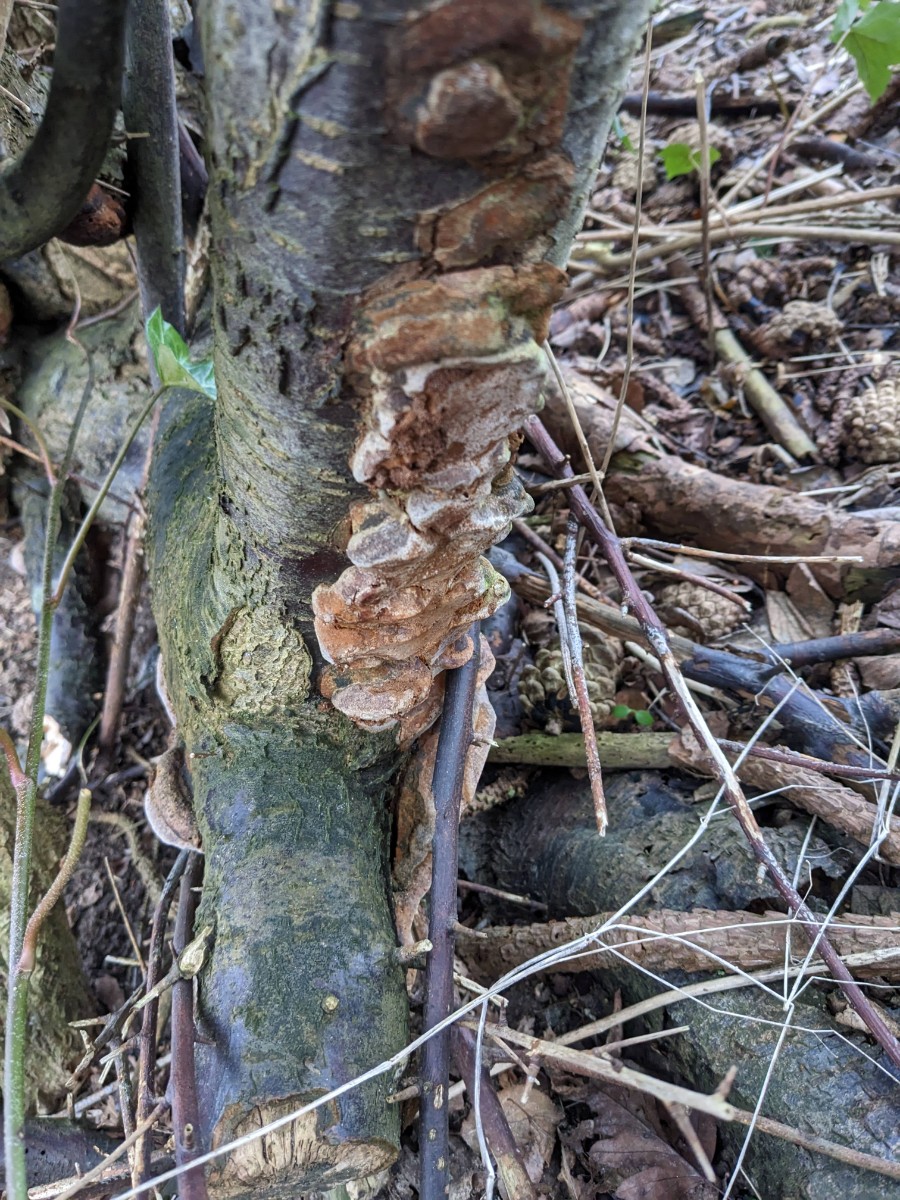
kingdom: Fungi
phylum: Basidiomycota
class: Agaricomycetes
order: Hymenochaetales
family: Hymenochaetaceae
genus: Phellinus
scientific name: Phellinus pomaceus
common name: blomme-ildporesvamp
